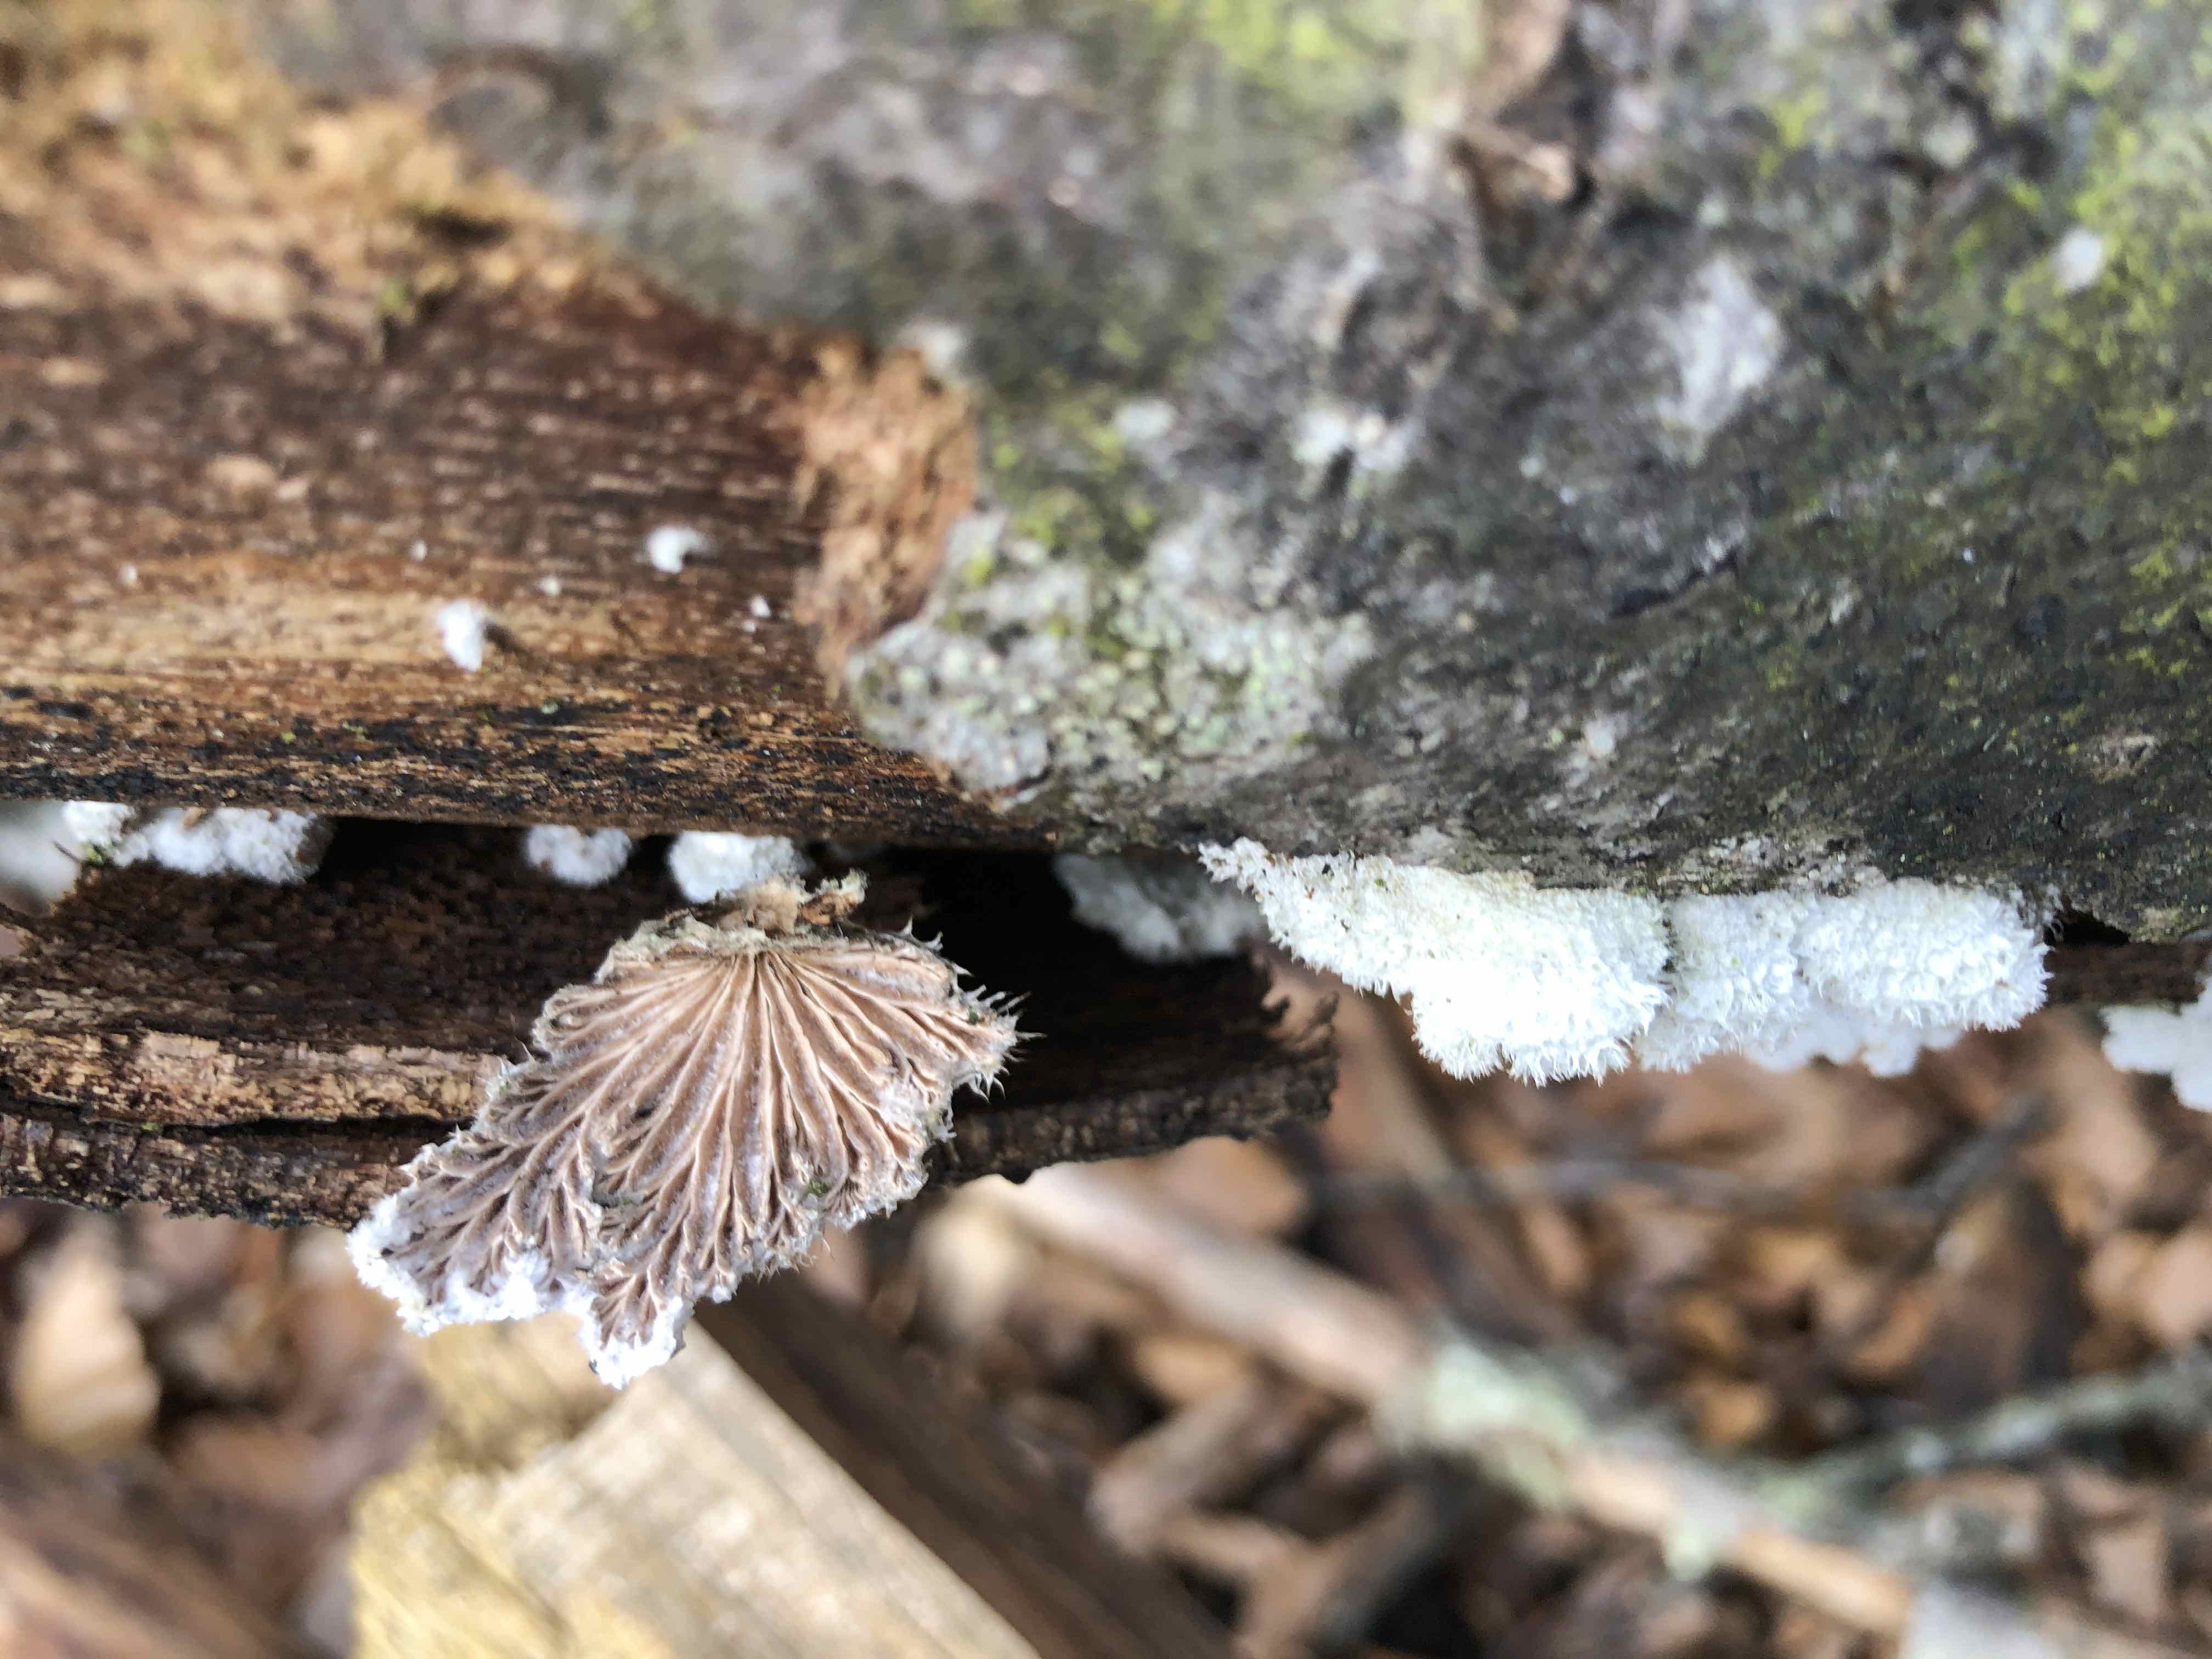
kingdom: Fungi
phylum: Basidiomycota
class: Agaricomycetes
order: Agaricales
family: Schizophyllaceae
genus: Schizophyllum
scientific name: Schizophyllum commune
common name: kløvblad
